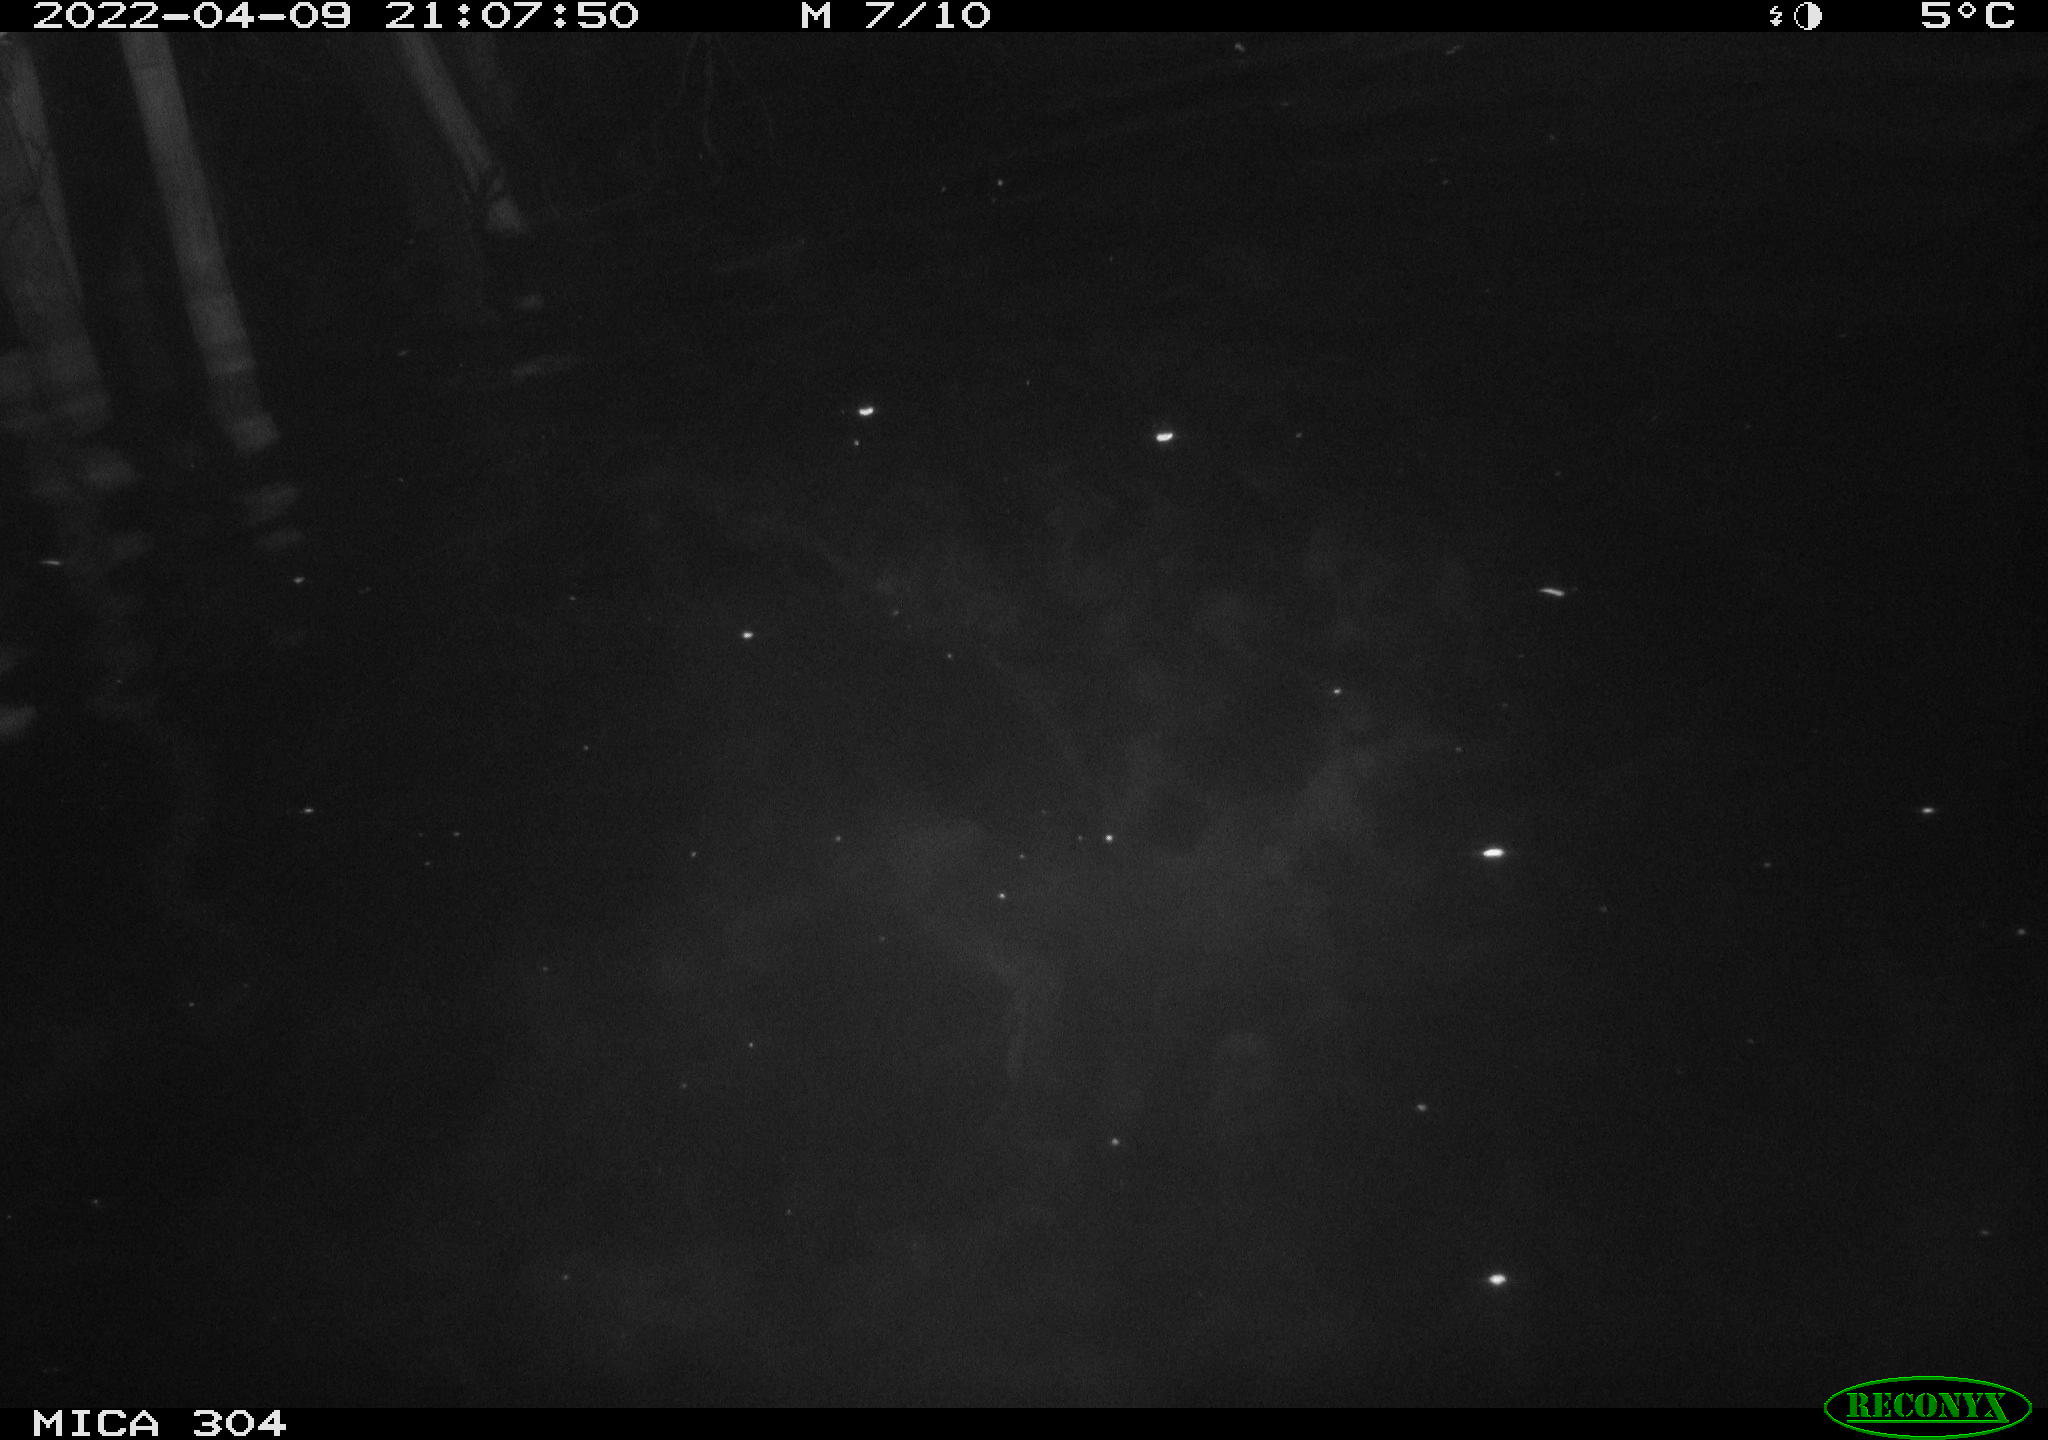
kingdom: Animalia
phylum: Chordata
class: Aves
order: Anseriformes
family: Anatidae
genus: Anas
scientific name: Anas platyrhynchos
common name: Mallard
